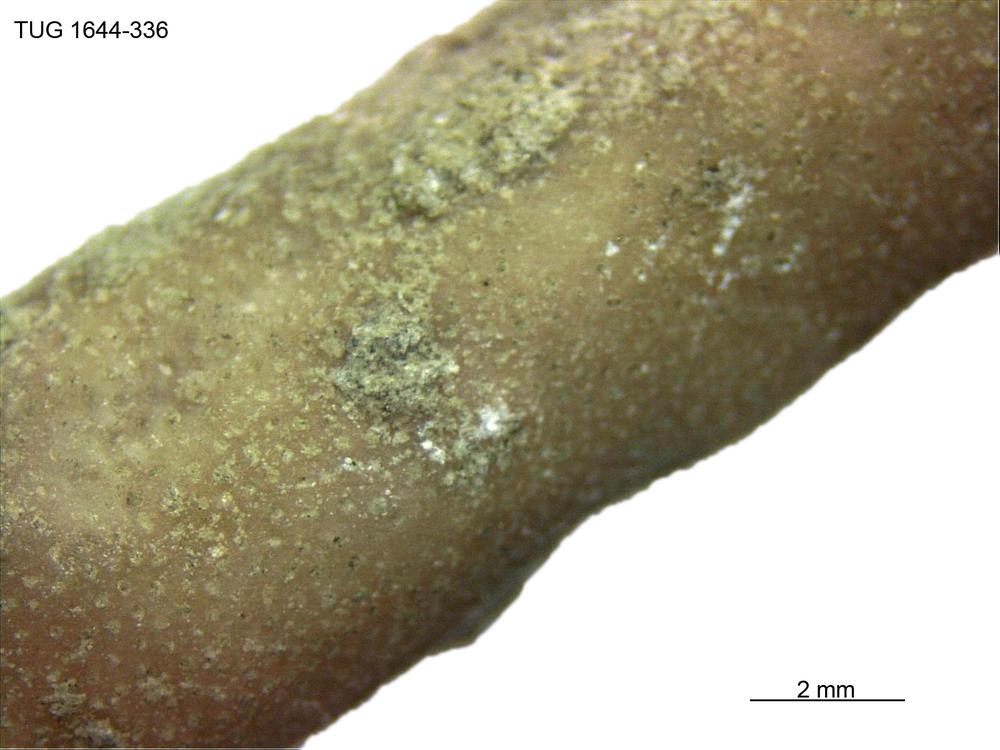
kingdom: Animalia
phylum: Bryozoa
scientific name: Bryozoa
